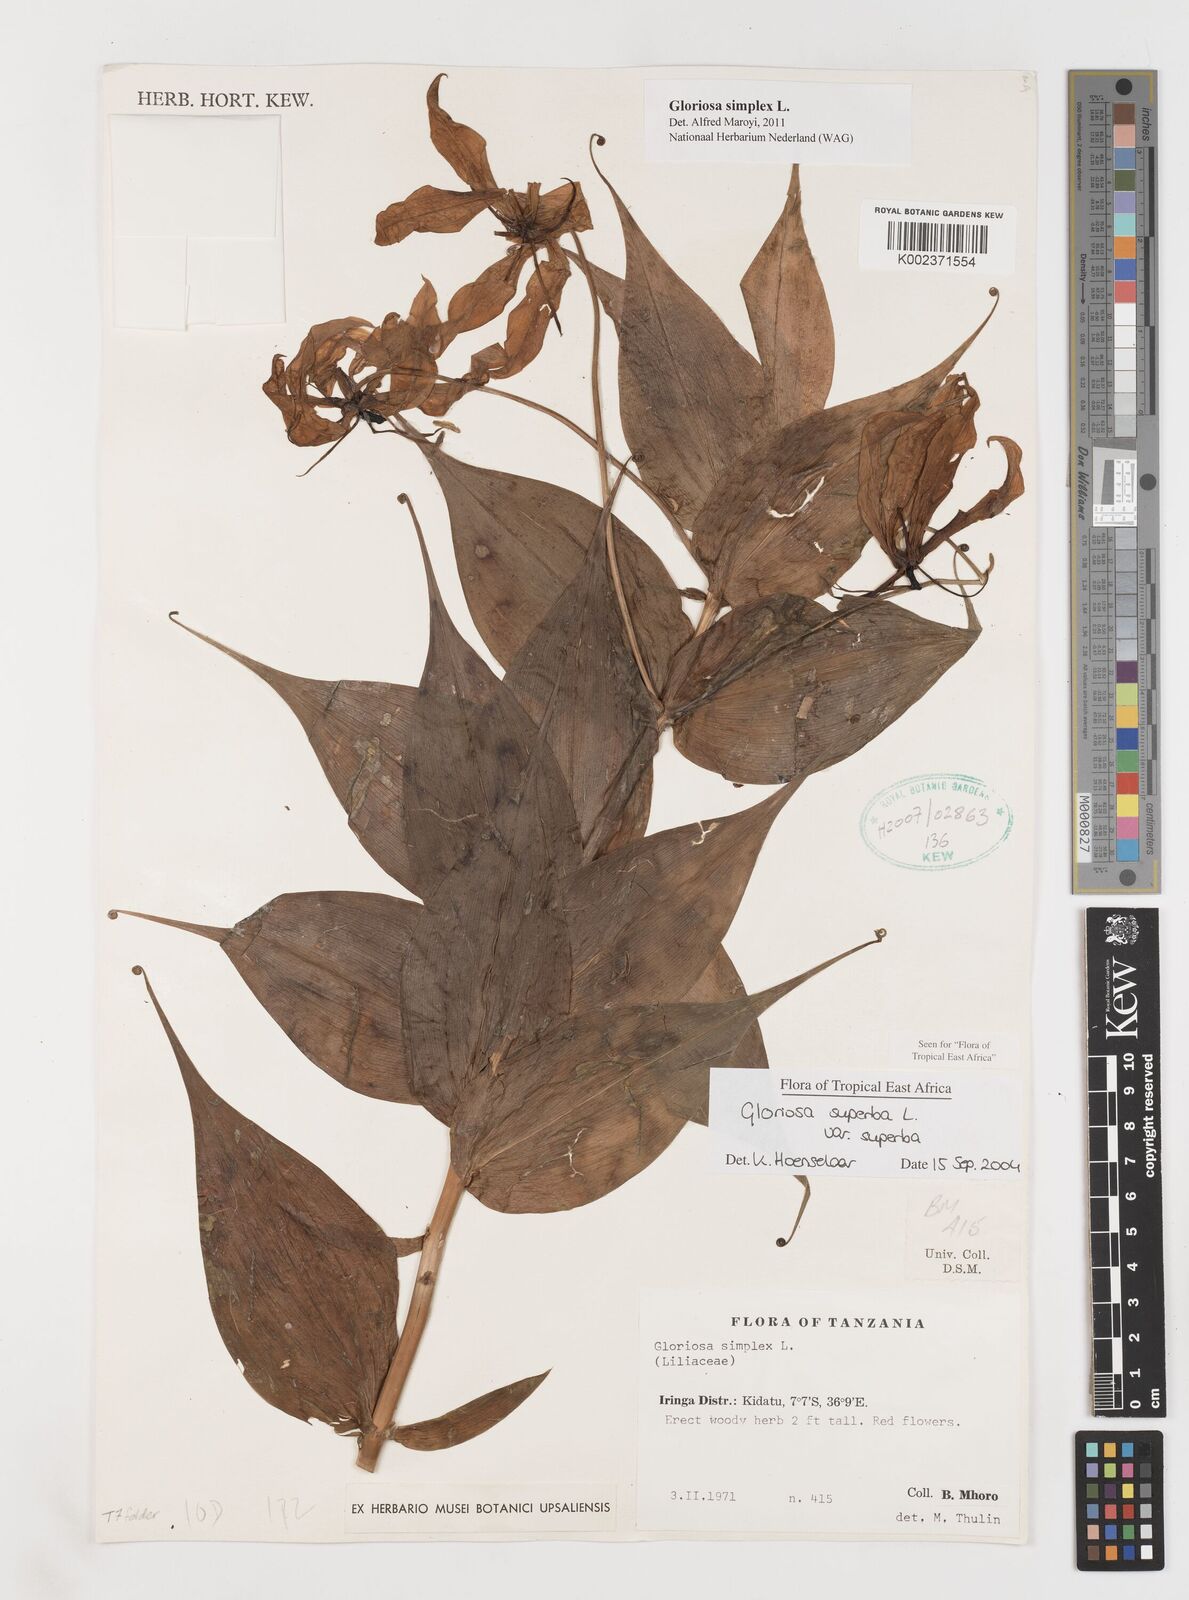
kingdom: Plantae
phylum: Tracheophyta
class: Liliopsida
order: Liliales
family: Colchicaceae
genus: Gloriosa
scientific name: Gloriosa simplex
